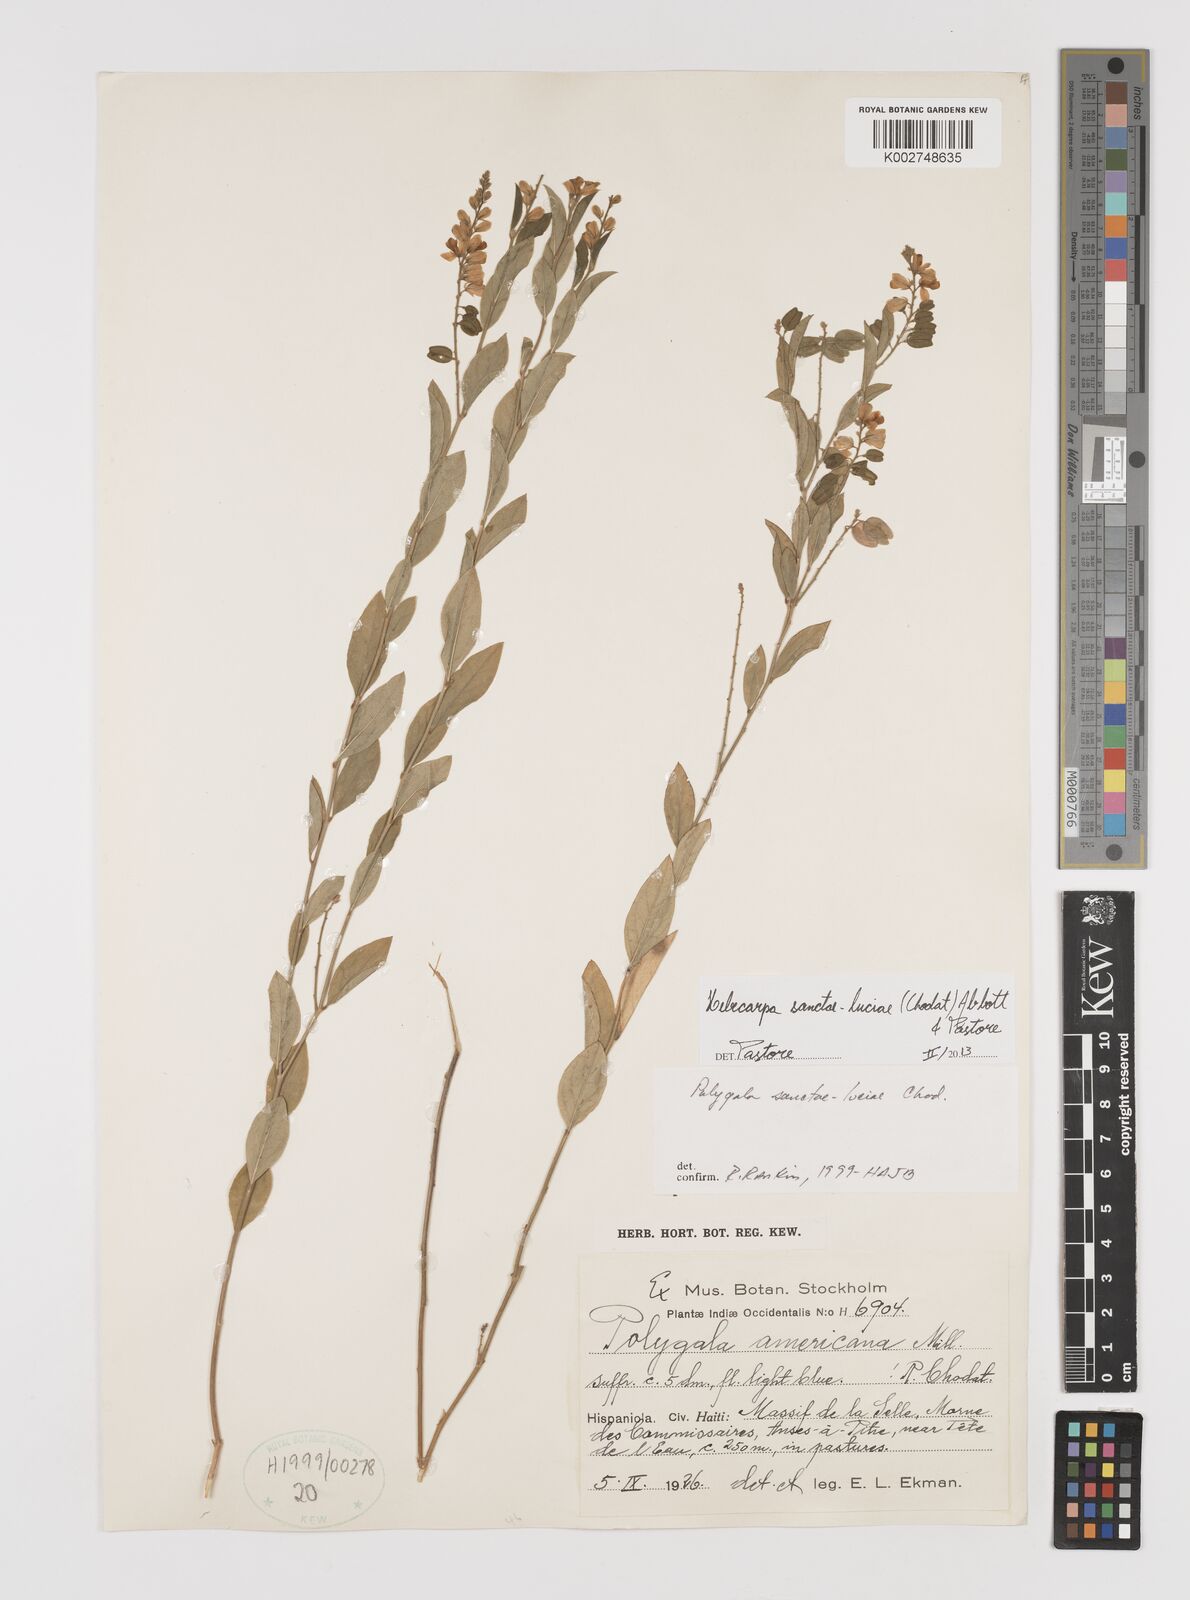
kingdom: Plantae
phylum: Tracheophyta
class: Magnoliopsida
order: Fabales
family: Polygalaceae
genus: Hebecarpa
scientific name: Hebecarpa
